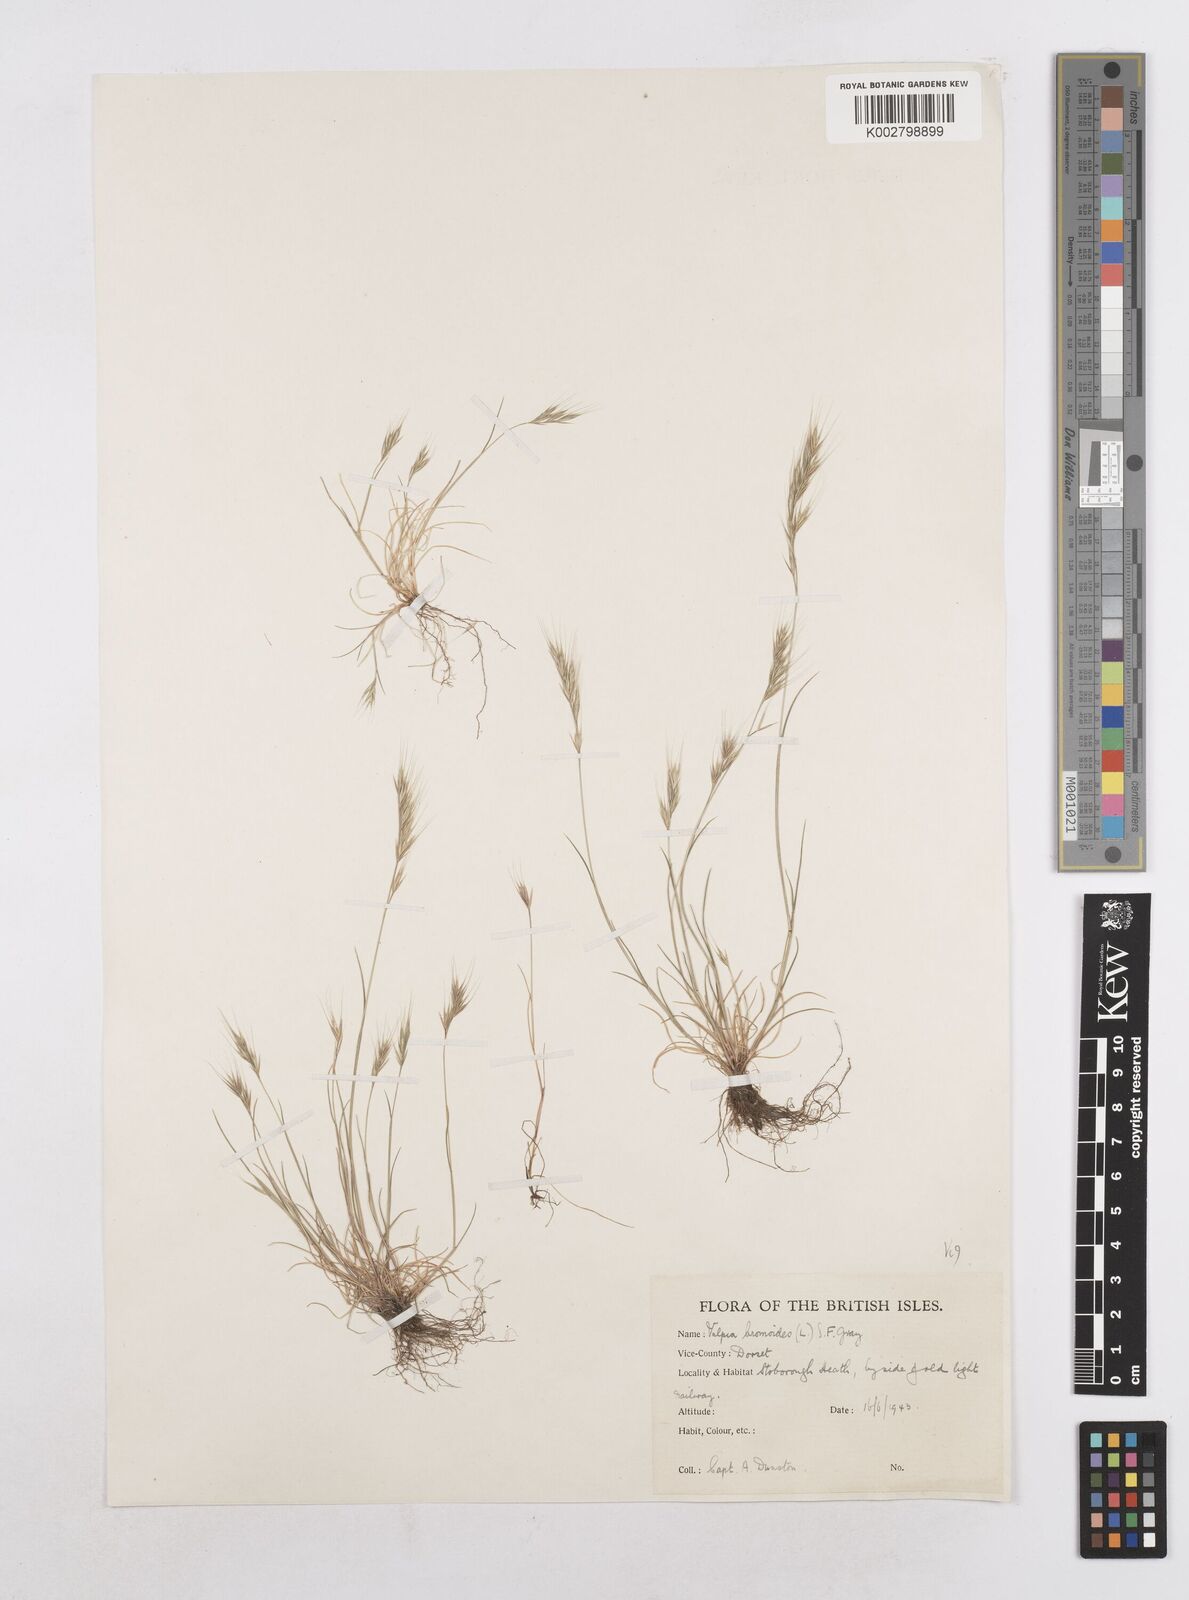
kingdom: Plantae
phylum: Tracheophyta
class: Liliopsida
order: Poales
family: Poaceae
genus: Festuca
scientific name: Festuca bromoides
